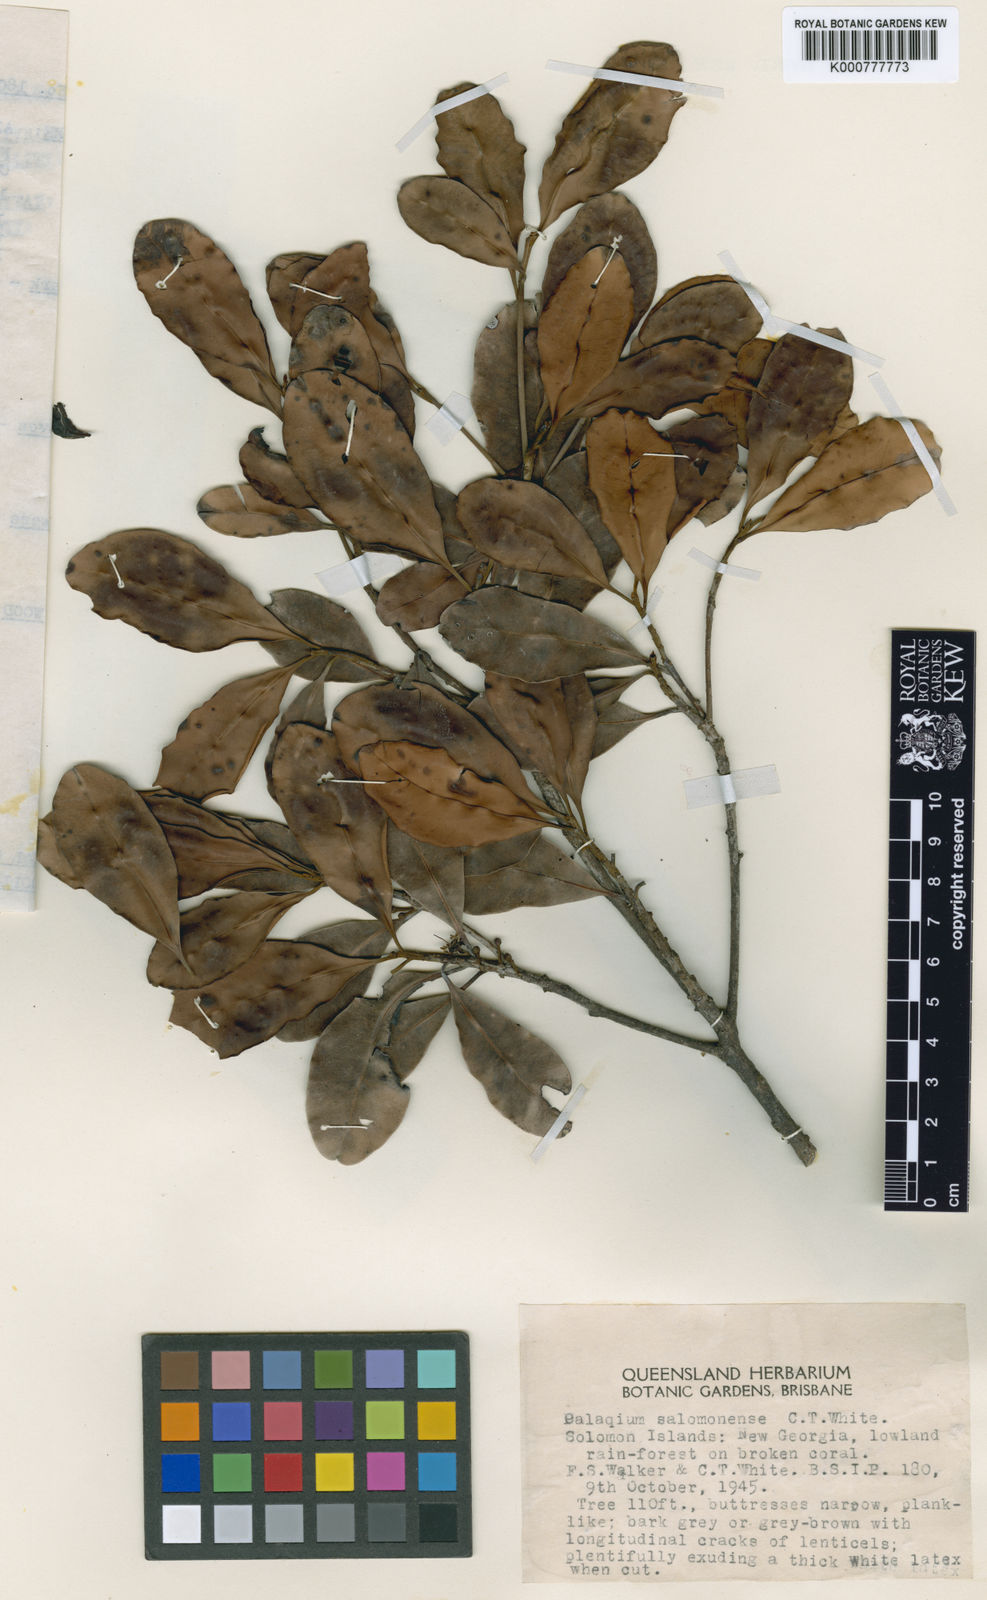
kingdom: Plantae
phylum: Tracheophyta
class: Magnoliopsida
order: Ericales
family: Sapotaceae
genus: Palaquium
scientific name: Palaquium galactoxylum
